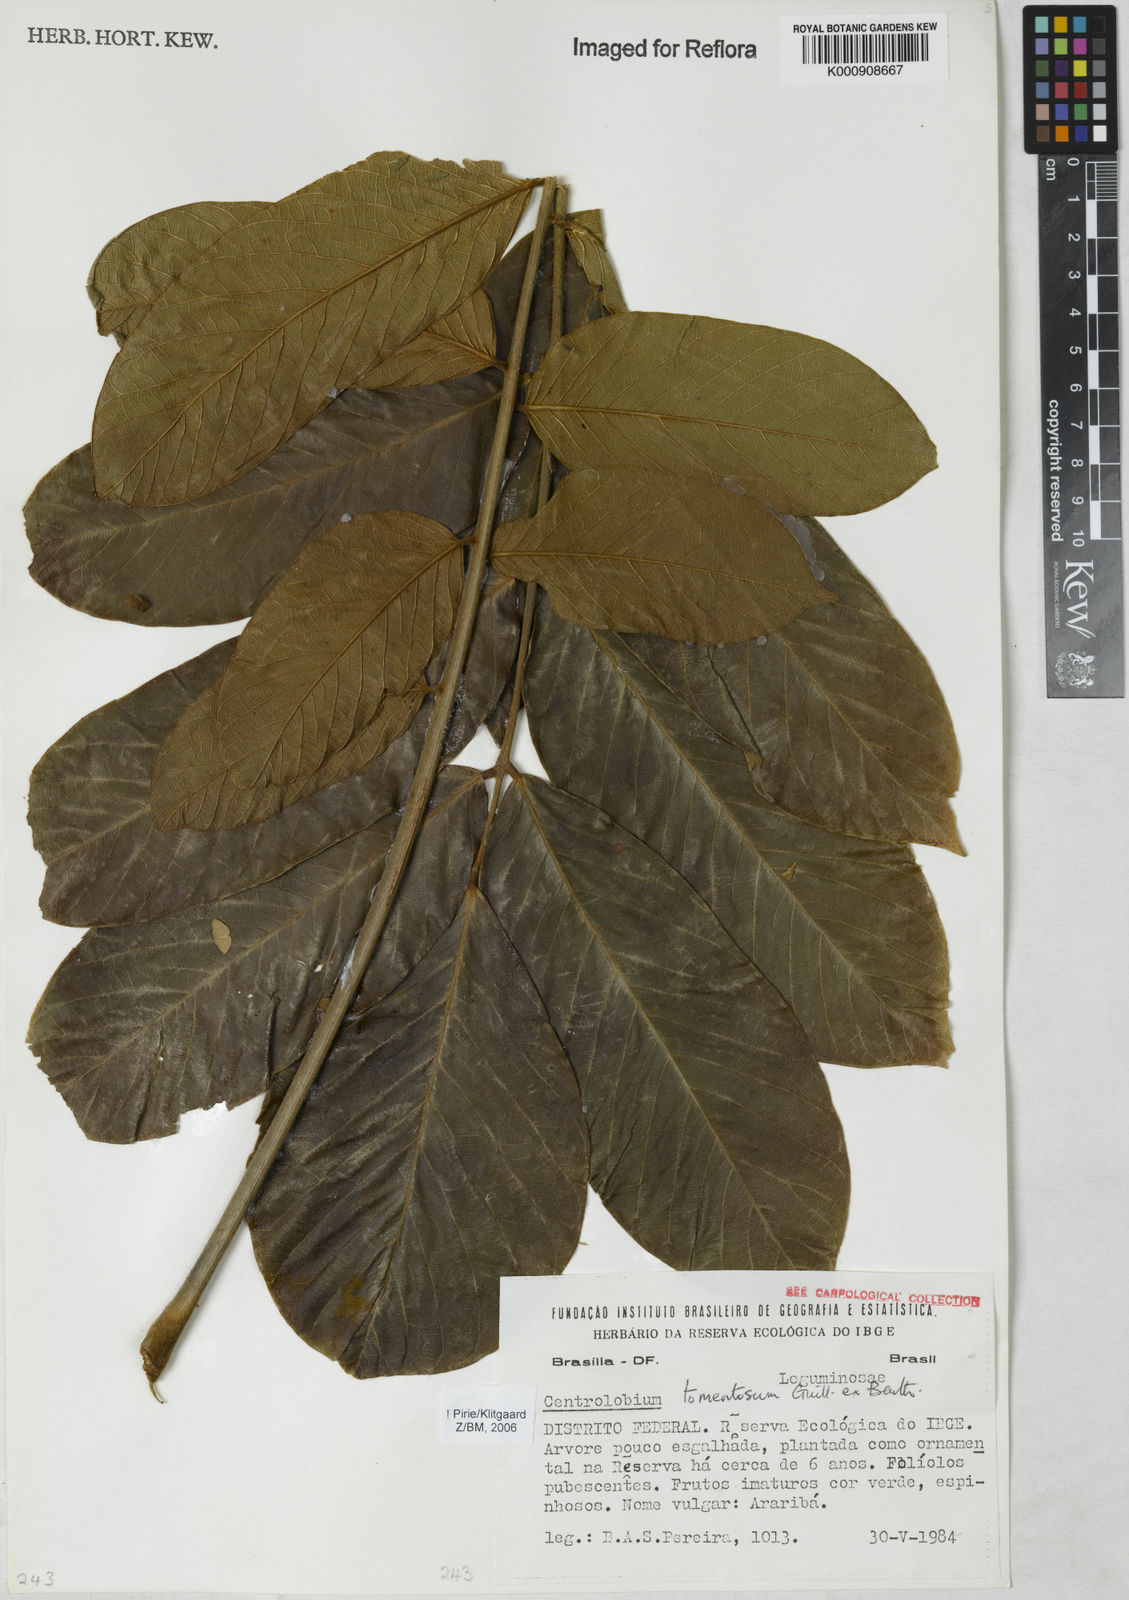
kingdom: Plantae
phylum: Tracheophyta
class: Magnoliopsida
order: Fabales
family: Fabaceae
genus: Centrolobium
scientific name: Centrolobium tomentosum
